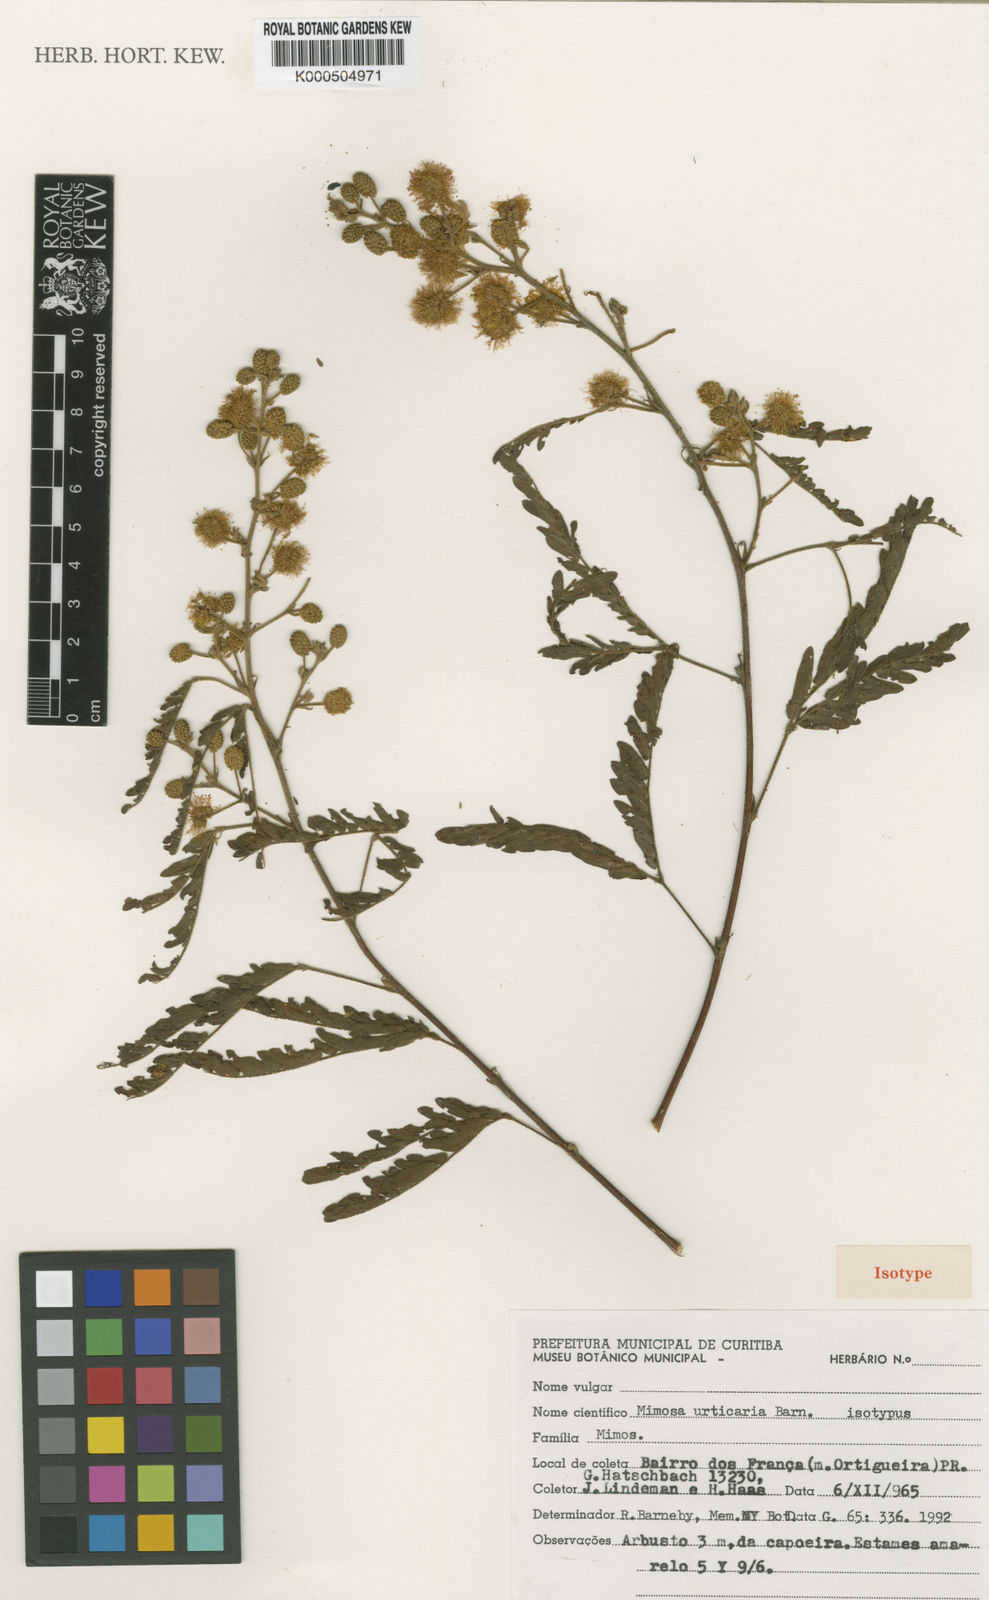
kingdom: Plantae
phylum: Tracheophyta
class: Magnoliopsida
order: Fabales
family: Fabaceae
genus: Mimosa
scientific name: Mimosa urticaria
